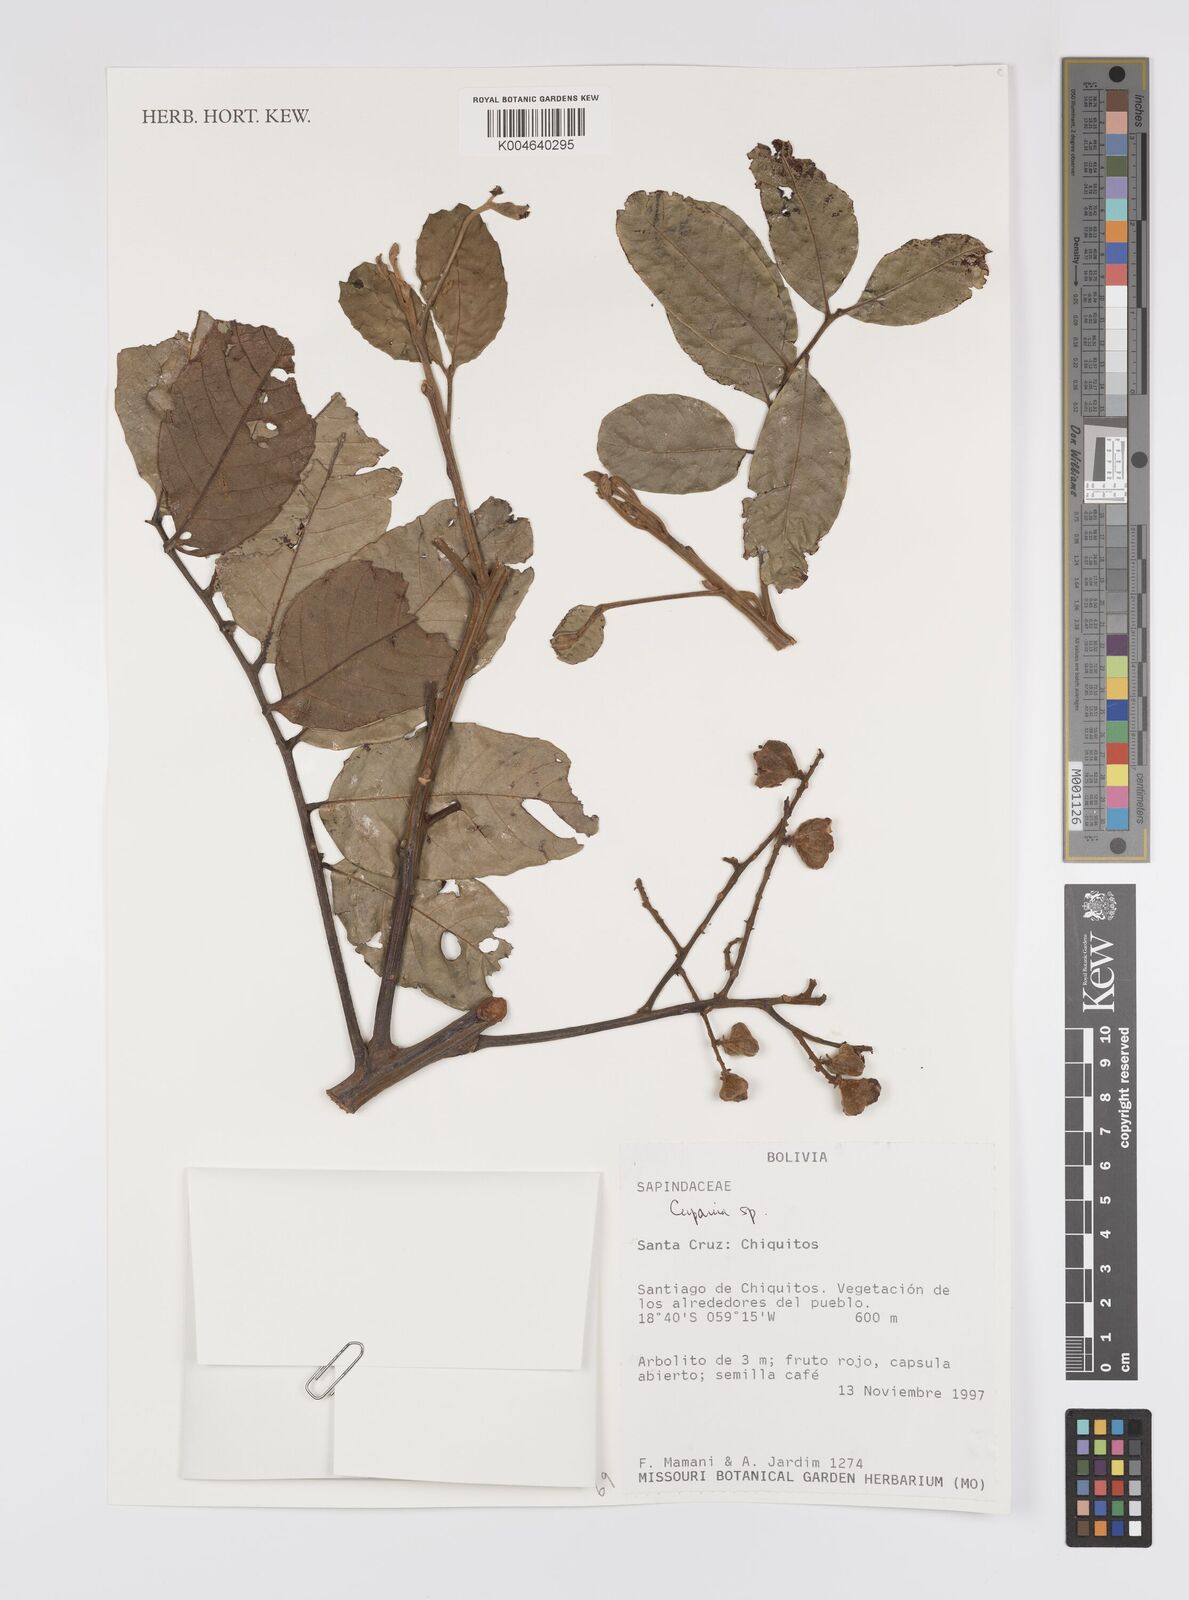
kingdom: Plantae
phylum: Tracheophyta
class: Magnoliopsida
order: Sapindales
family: Sapindaceae
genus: Cupania
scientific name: Cupania
